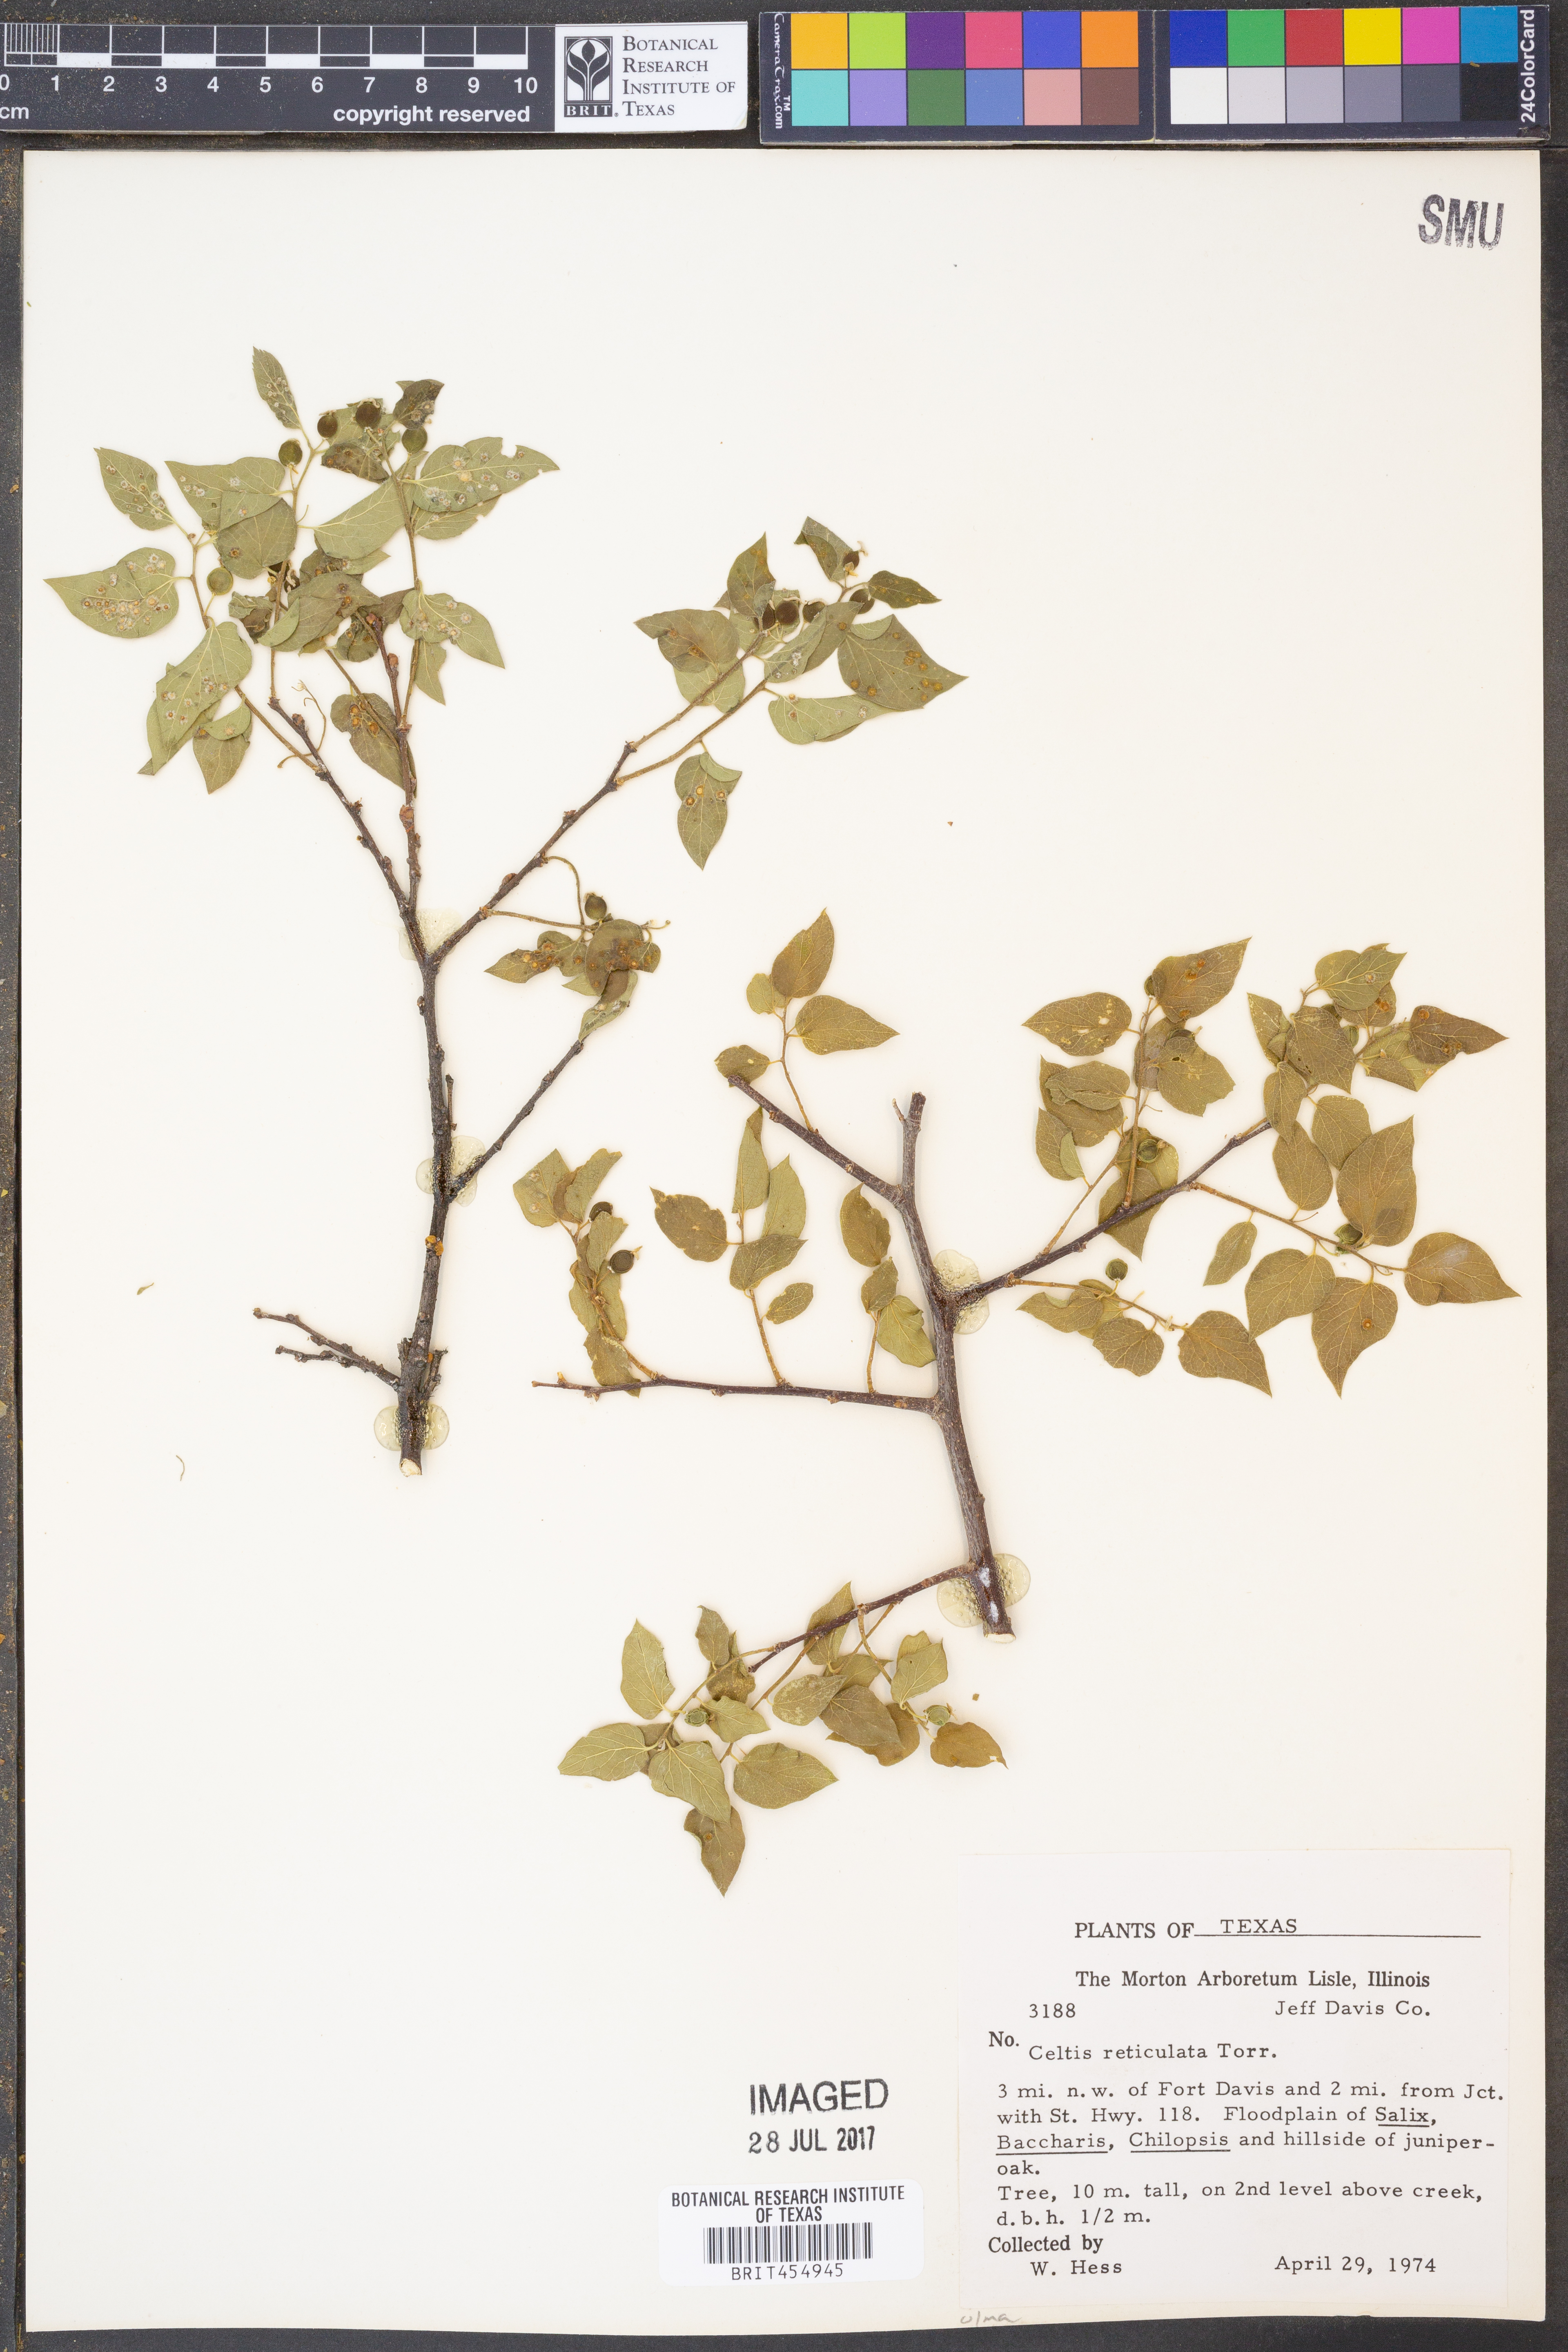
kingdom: Plantae
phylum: Tracheophyta
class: Magnoliopsida
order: Rosales
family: Cannabaceae
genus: Celtis
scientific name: Celtis reticulata
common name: Netleaf hackberry
